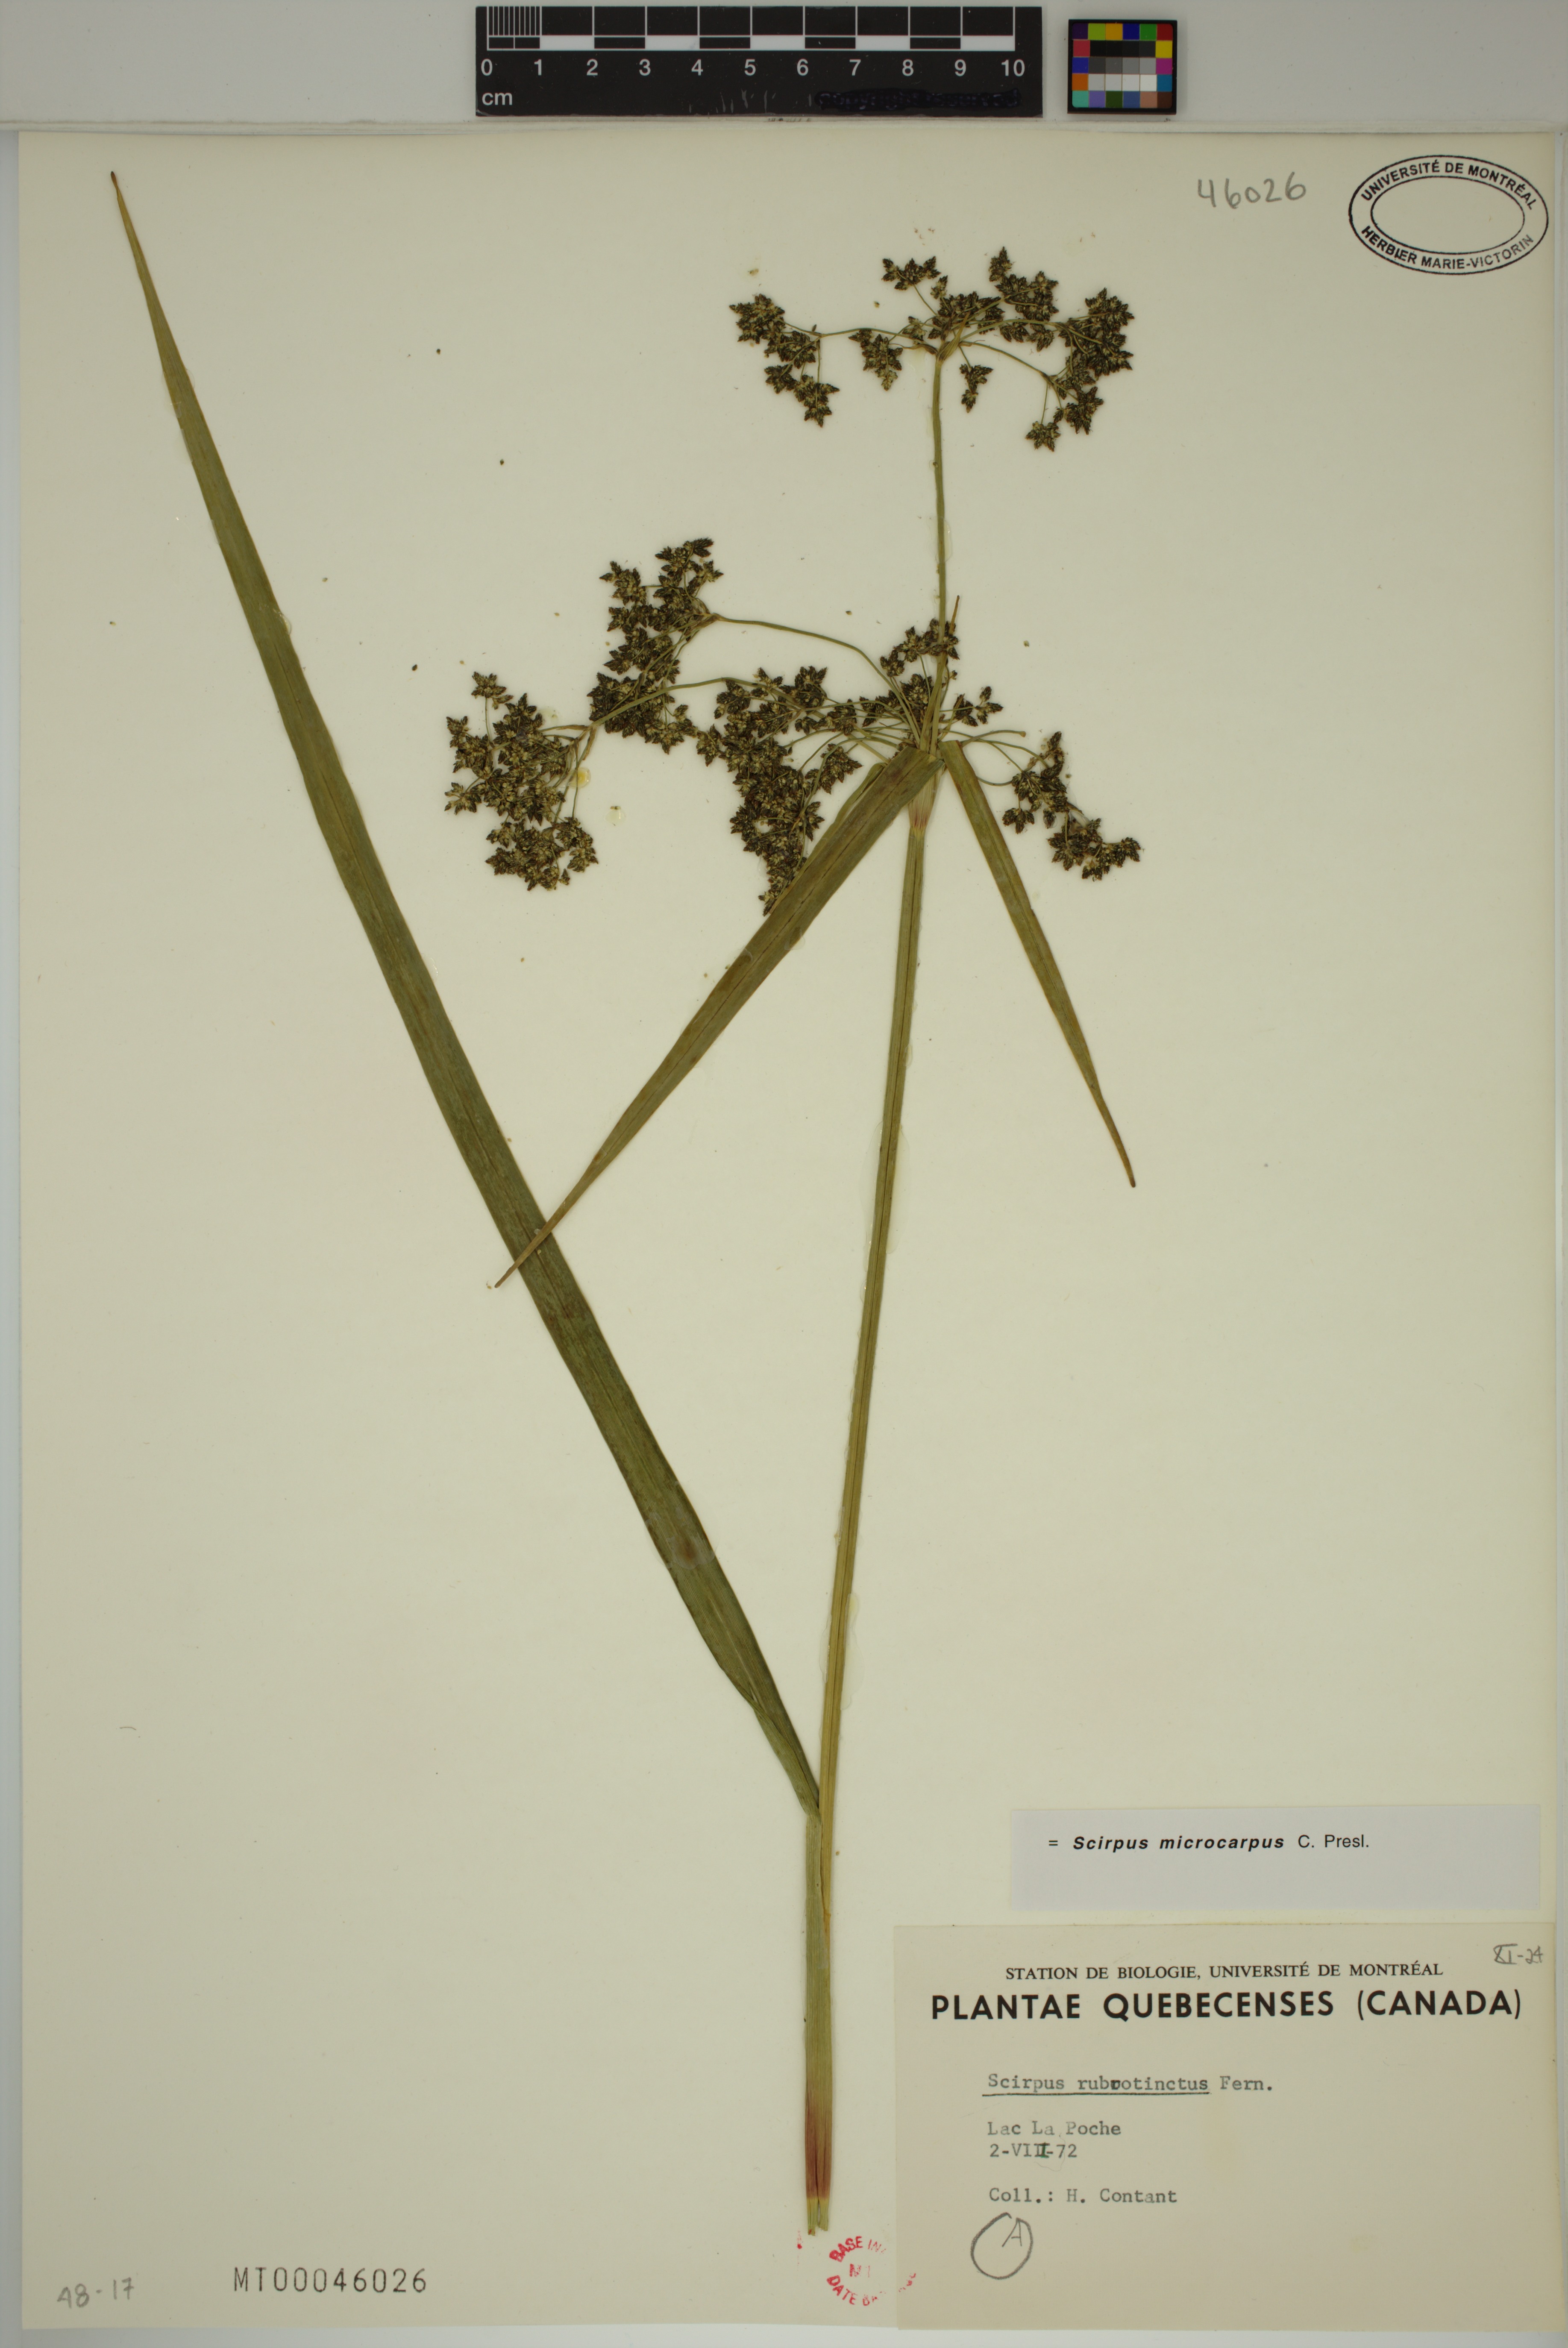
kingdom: Plantae
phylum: Tracheophyta
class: Liliopsida
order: Poales
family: Cyperaceae
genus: Scirpus
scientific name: Scirpus microcarpus
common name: Panicled bulrush
